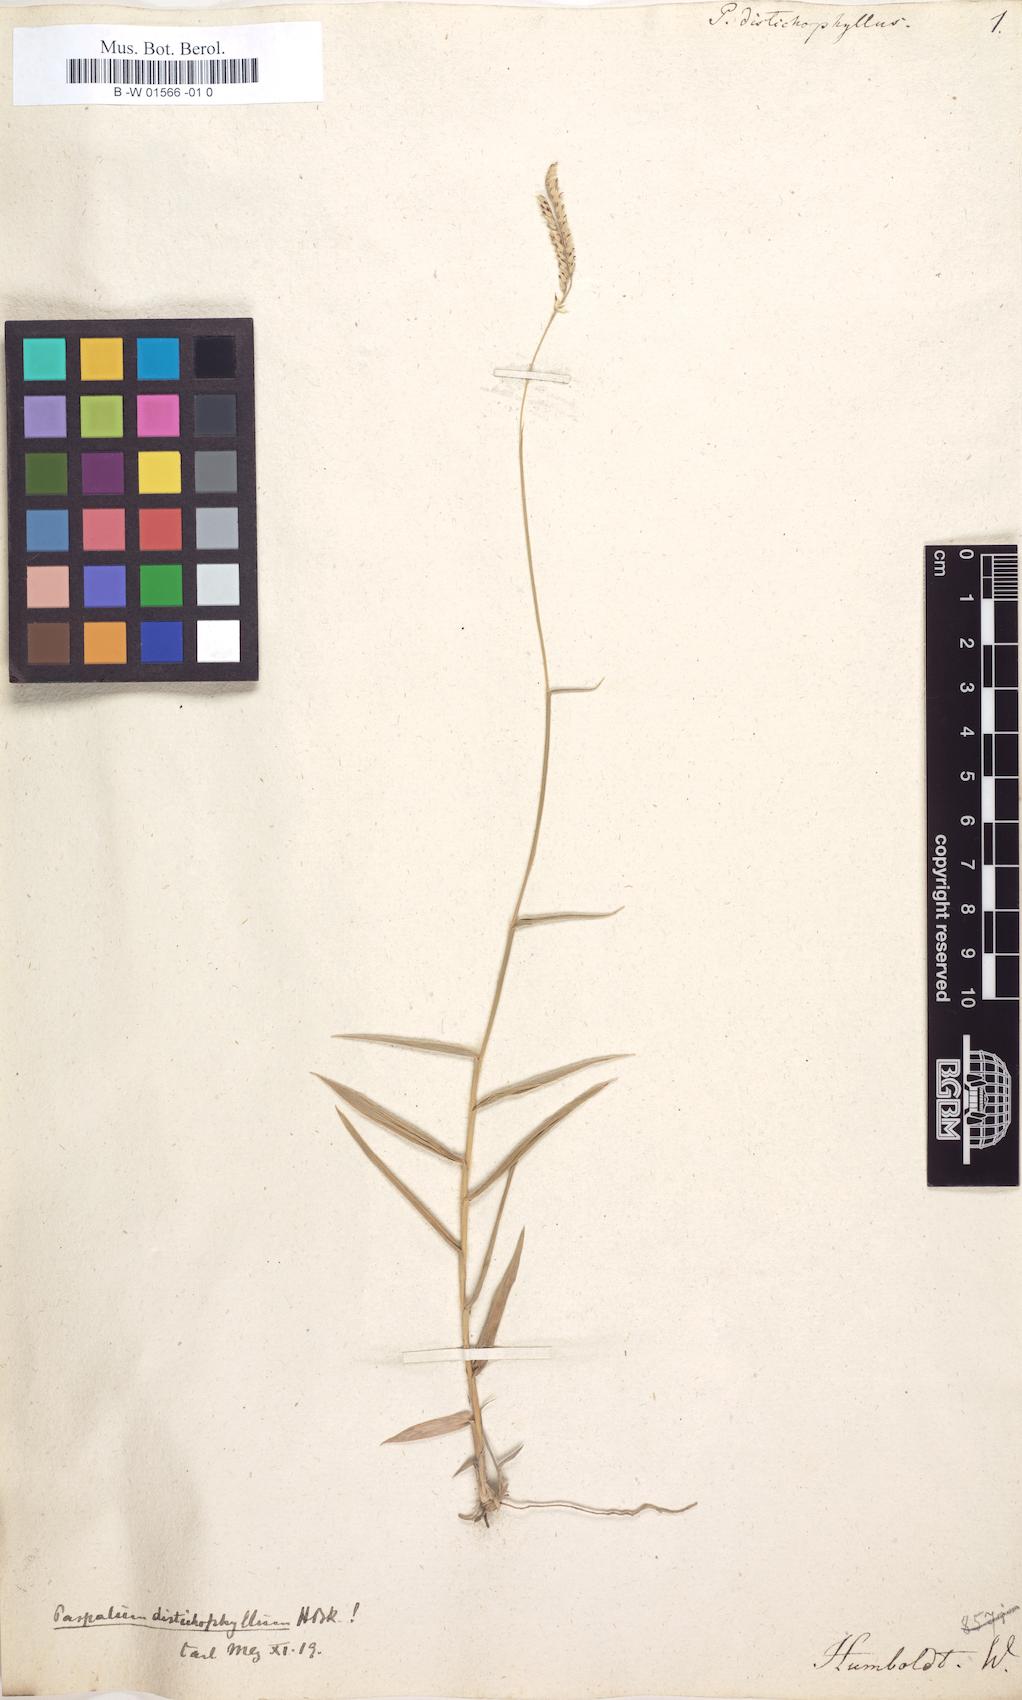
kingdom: Plantae
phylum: Tracheophyta
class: Liliopsida
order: Poales
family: Poaceae
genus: Paspalum
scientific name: Paspalum humboldtianum
